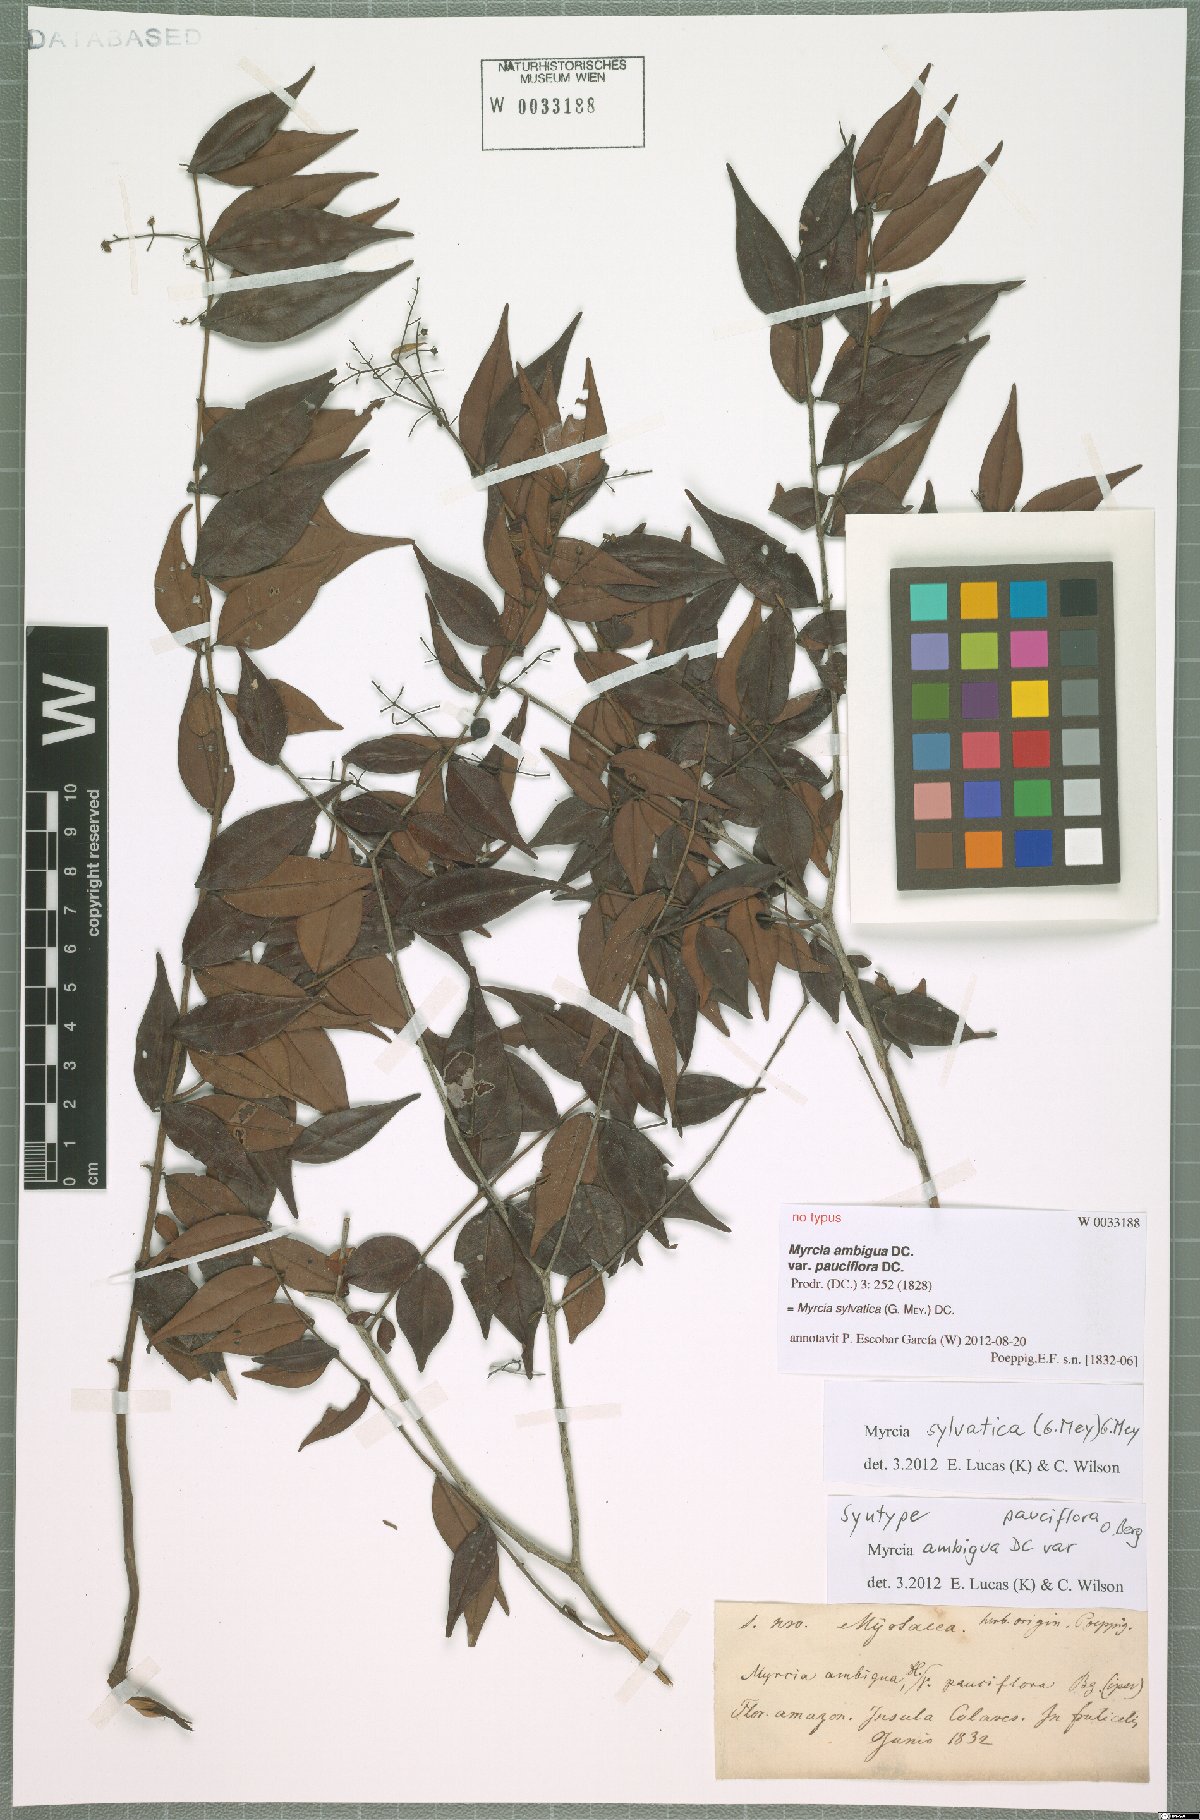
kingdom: Plantae
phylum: Tracheophyta
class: Magnoliopsida
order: Myrtales
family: Myrtaceae
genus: Myrcia
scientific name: Myrcia sylvatica
